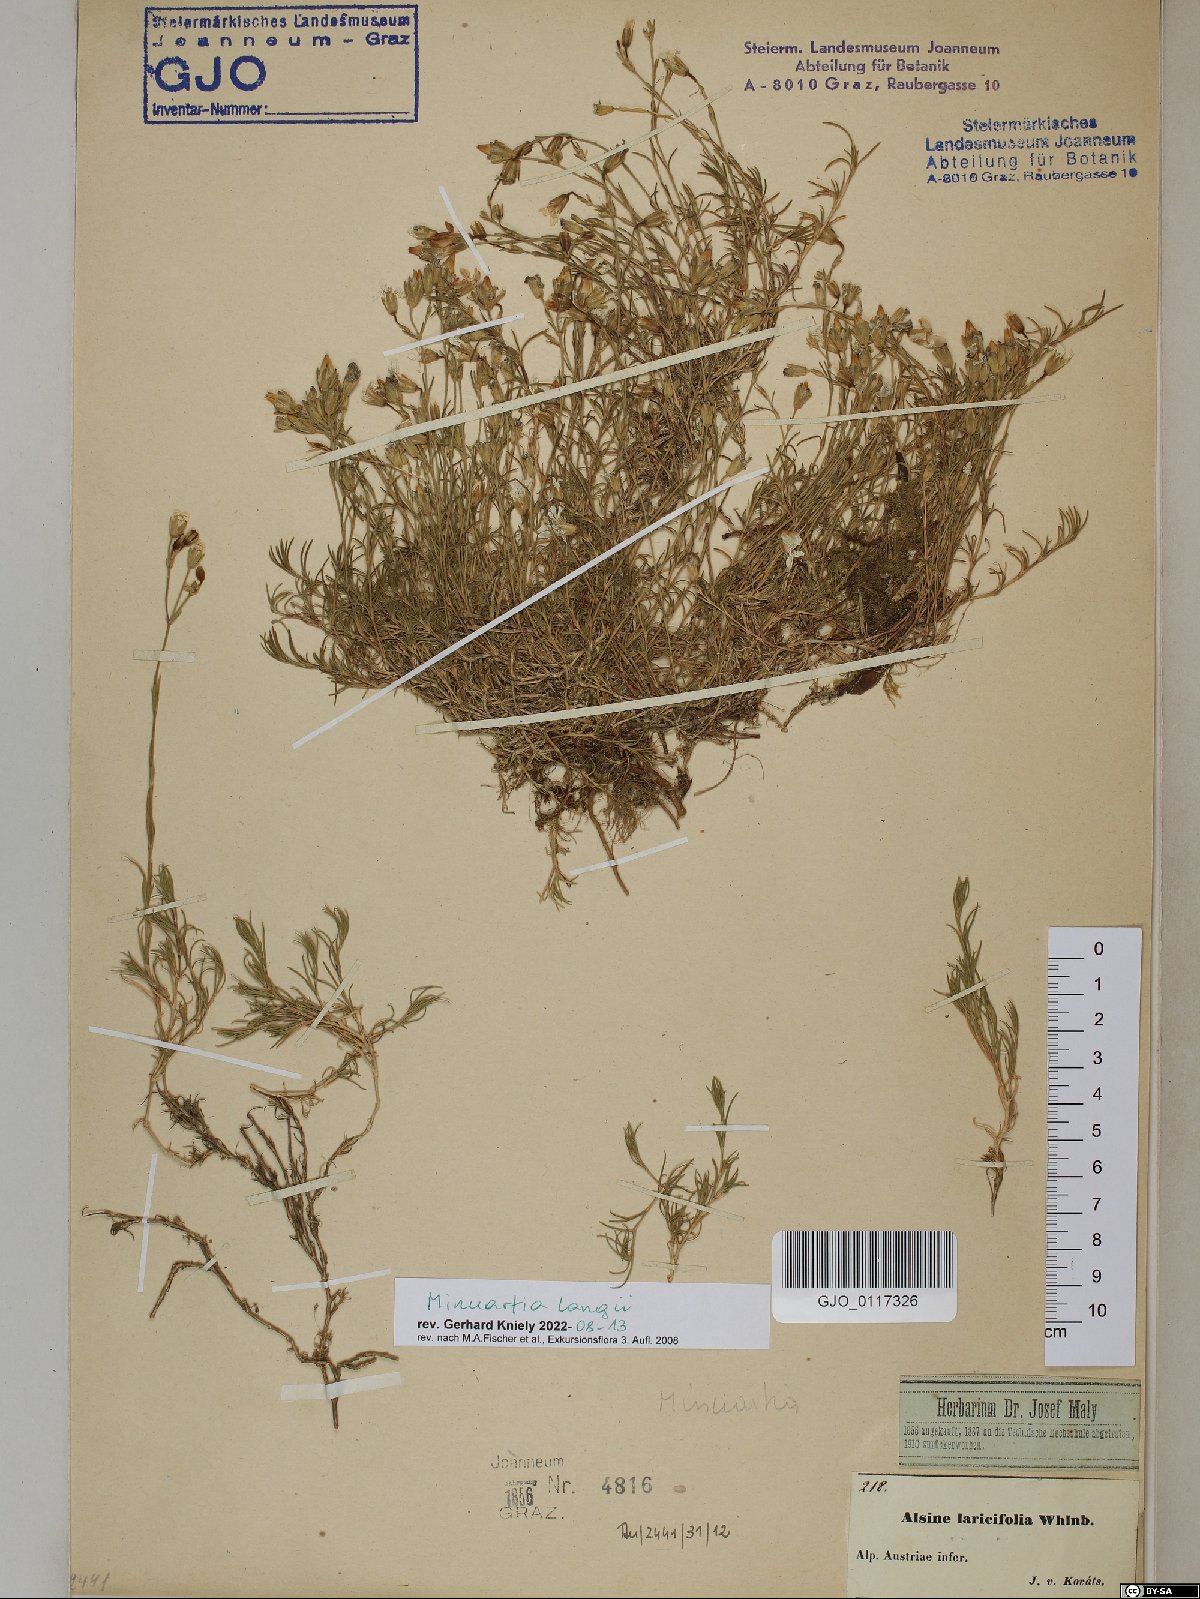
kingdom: Plantae
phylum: Tracheophyta
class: Magnoliopsida
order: Caryophyllales
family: Caryophyllaceae
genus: Cherleria
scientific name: Cherleria langii
